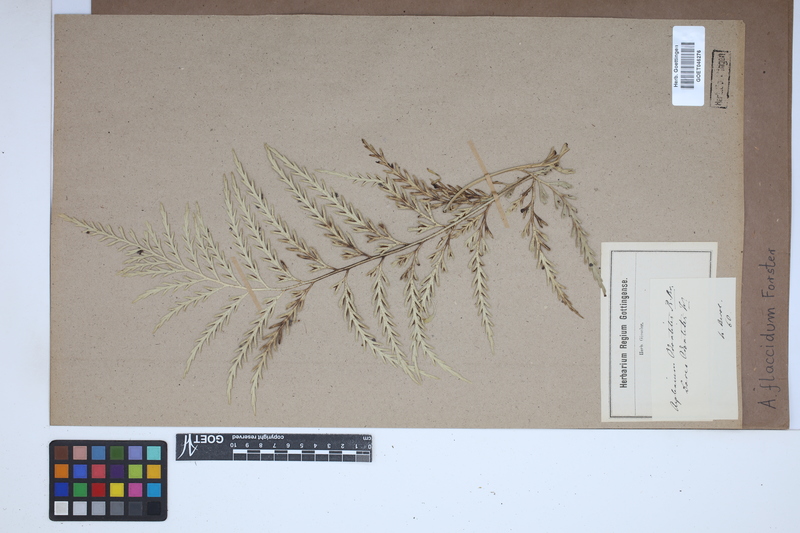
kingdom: Plantae
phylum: Tracheophyta
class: Polypodiopsida
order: Polypodiales
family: Aspleniaceae
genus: Asplenium
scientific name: Asplenium flaccidum
